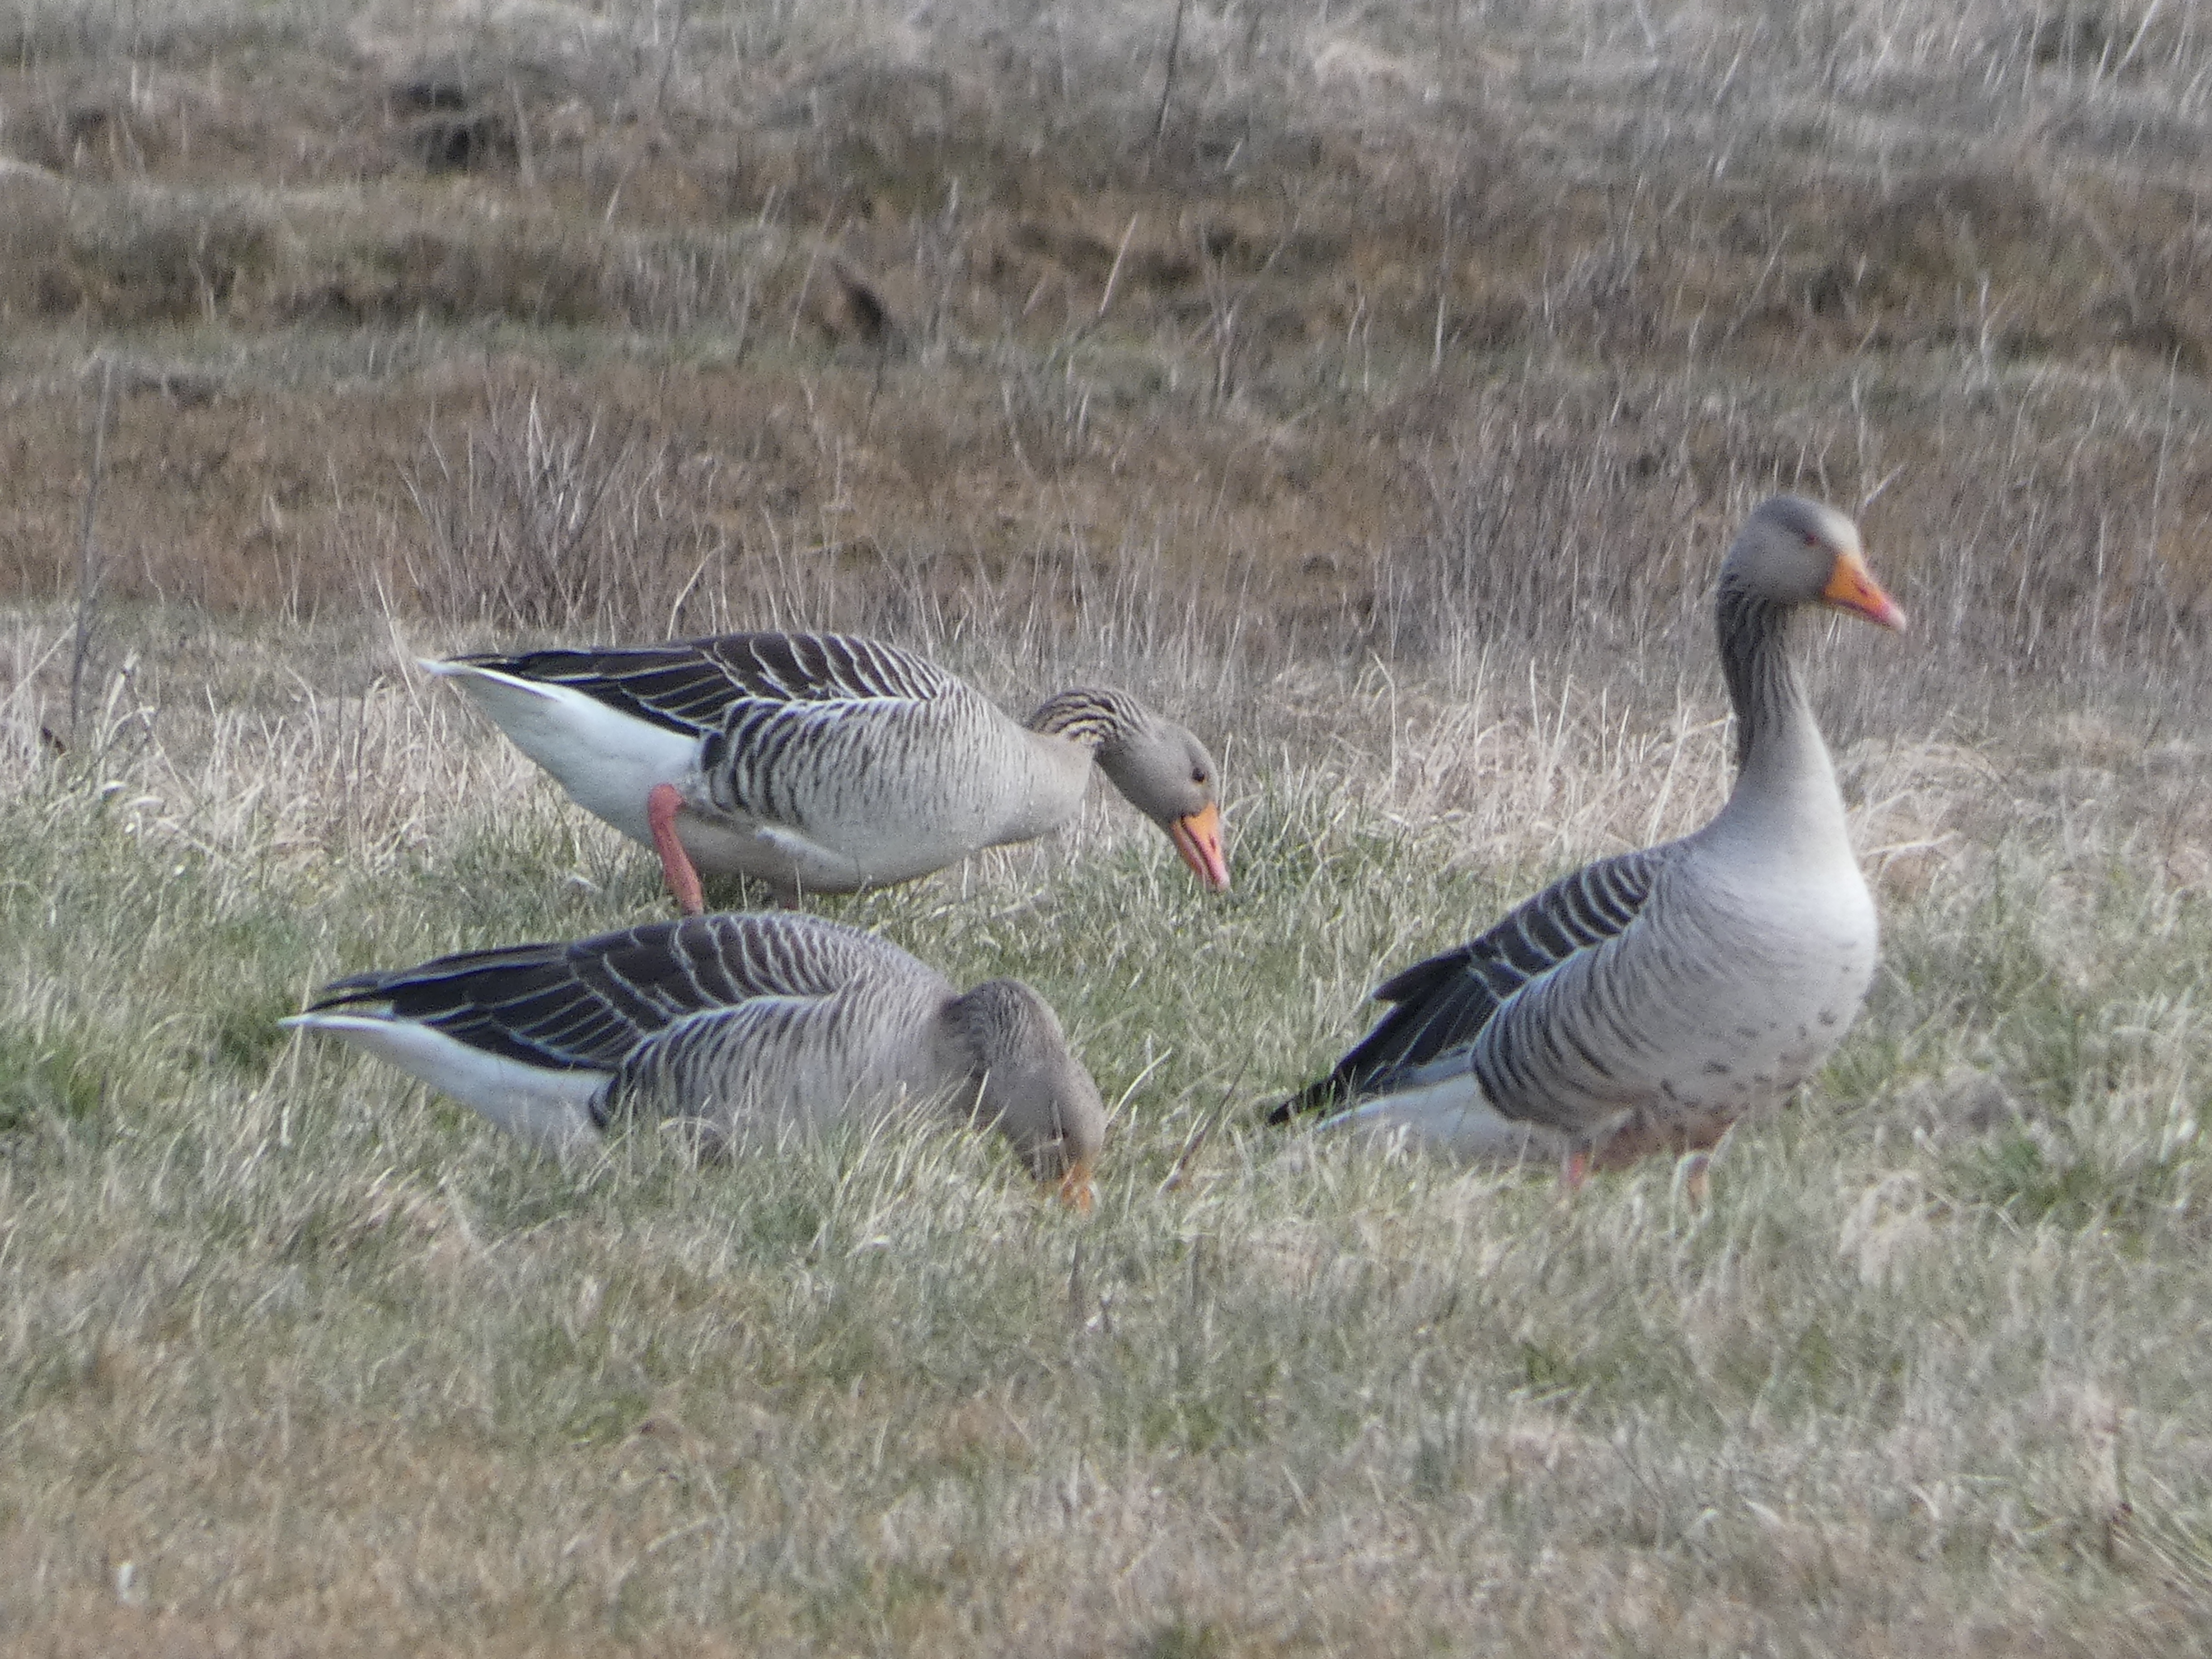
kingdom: Animalia
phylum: Chordata
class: Aves
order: Anseriformes
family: Anatidae
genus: Anser
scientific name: Anser anser
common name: Grågås
